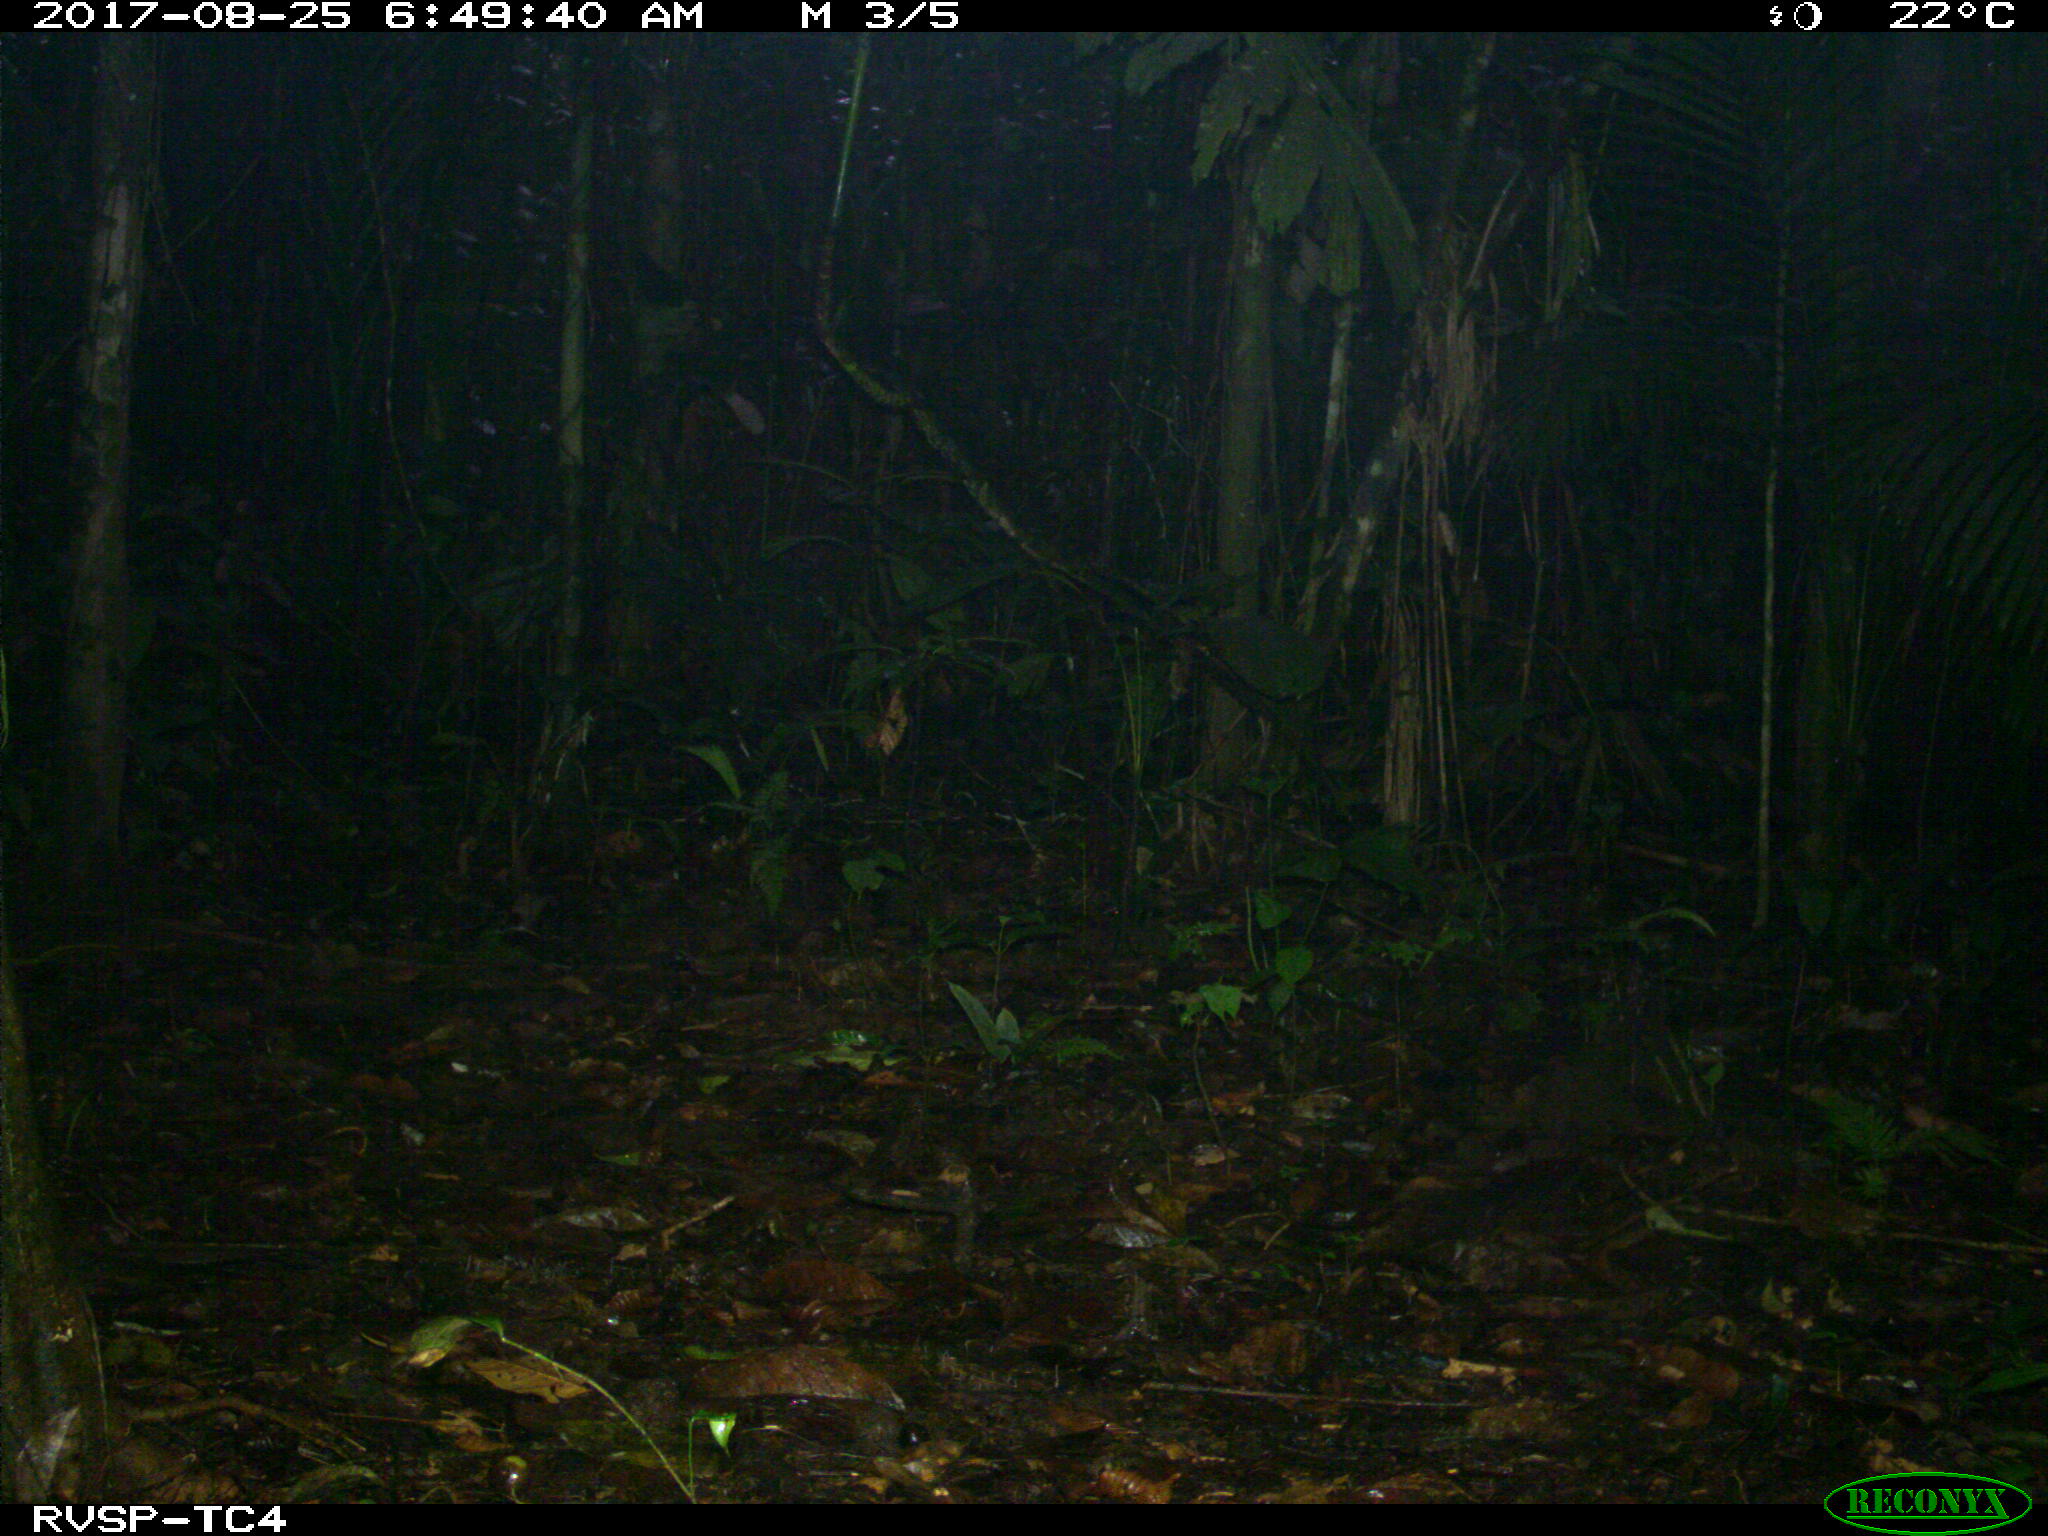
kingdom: Animalia
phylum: Chordata
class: Mammalia
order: Rodentia
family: Dasyproctidae
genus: Dasyprocta
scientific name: Dasyprocta punctata
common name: Central american agouti
